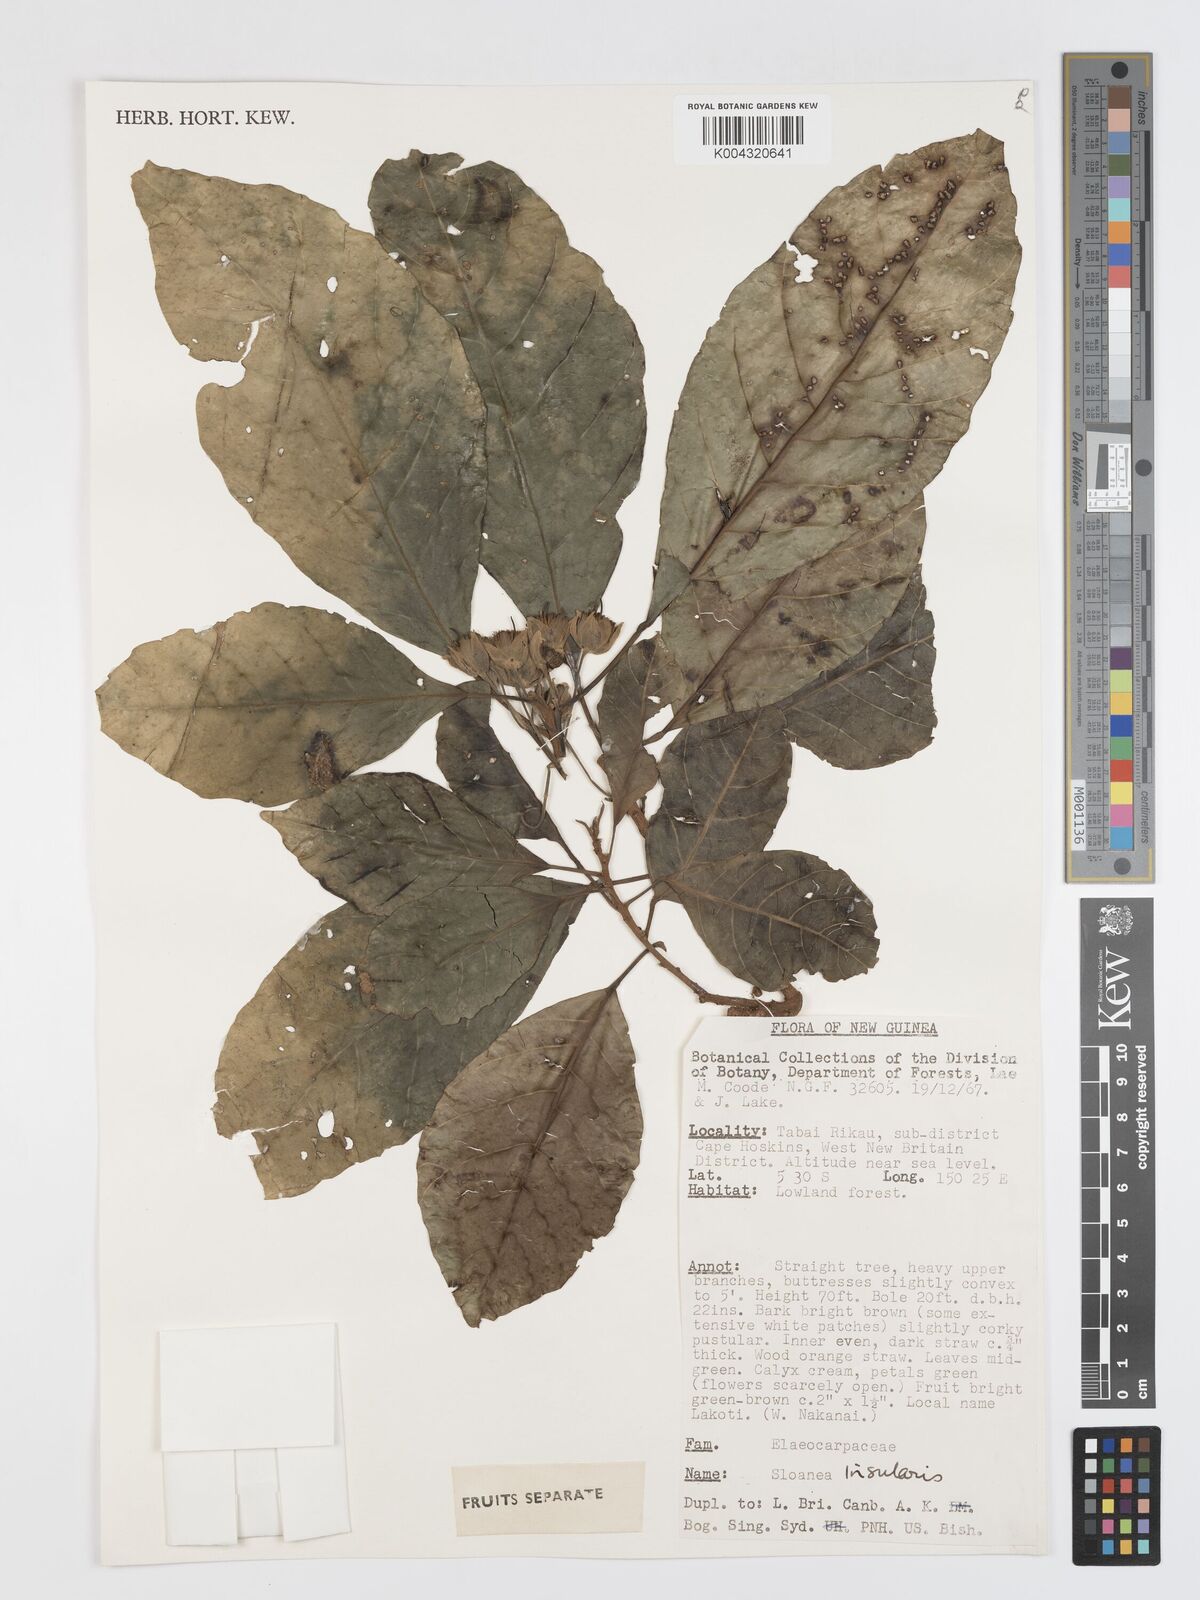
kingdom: Plantae
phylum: Tracheophyta
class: Magnoliopsida
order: Oxalidales
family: Elaeocarpaceae
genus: Sloanea
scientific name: Sloanea insularis
